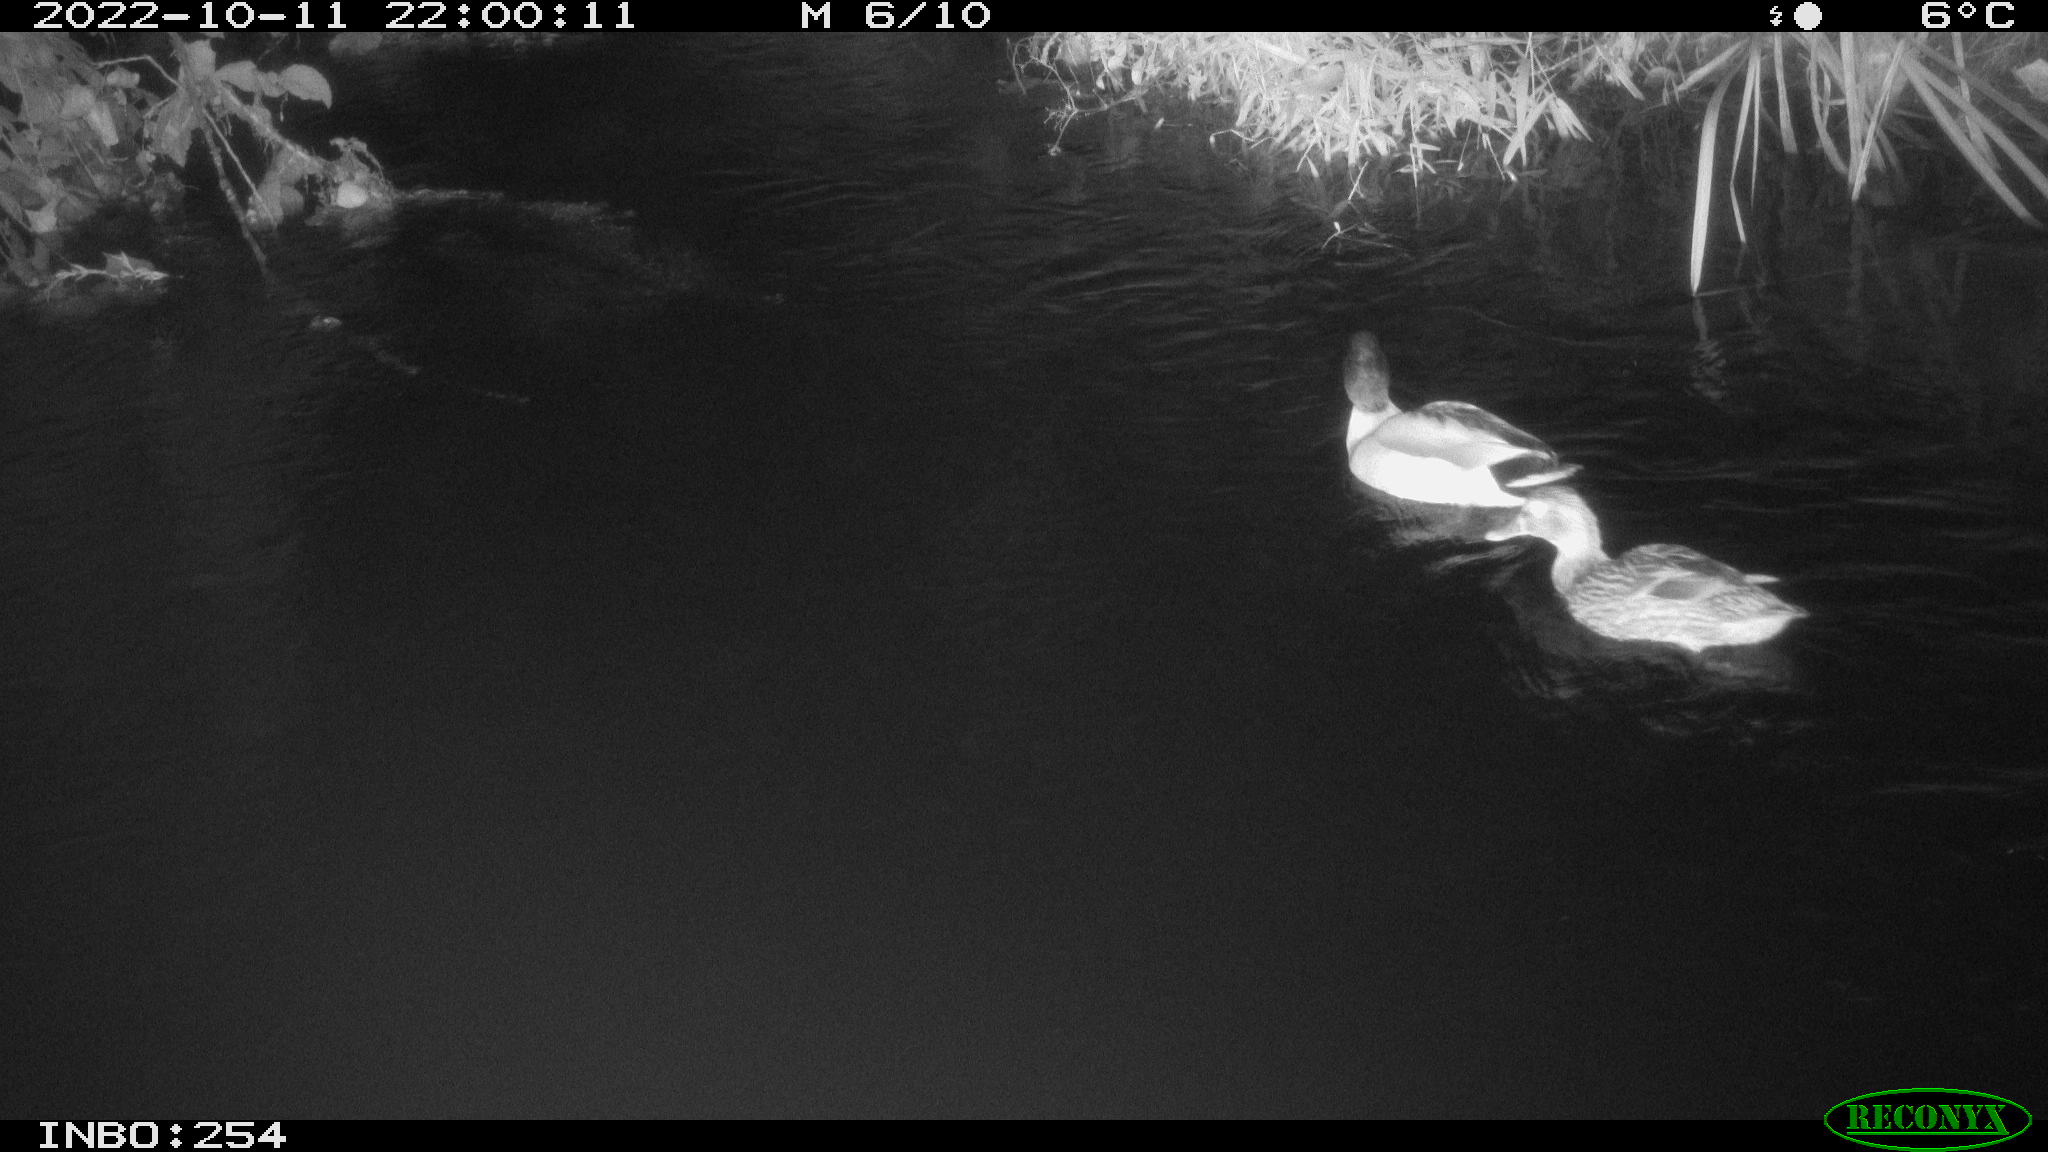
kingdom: Animalia
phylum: Chordata
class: Aves
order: Anseriformes
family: Anatidae
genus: Anas
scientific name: Anas
